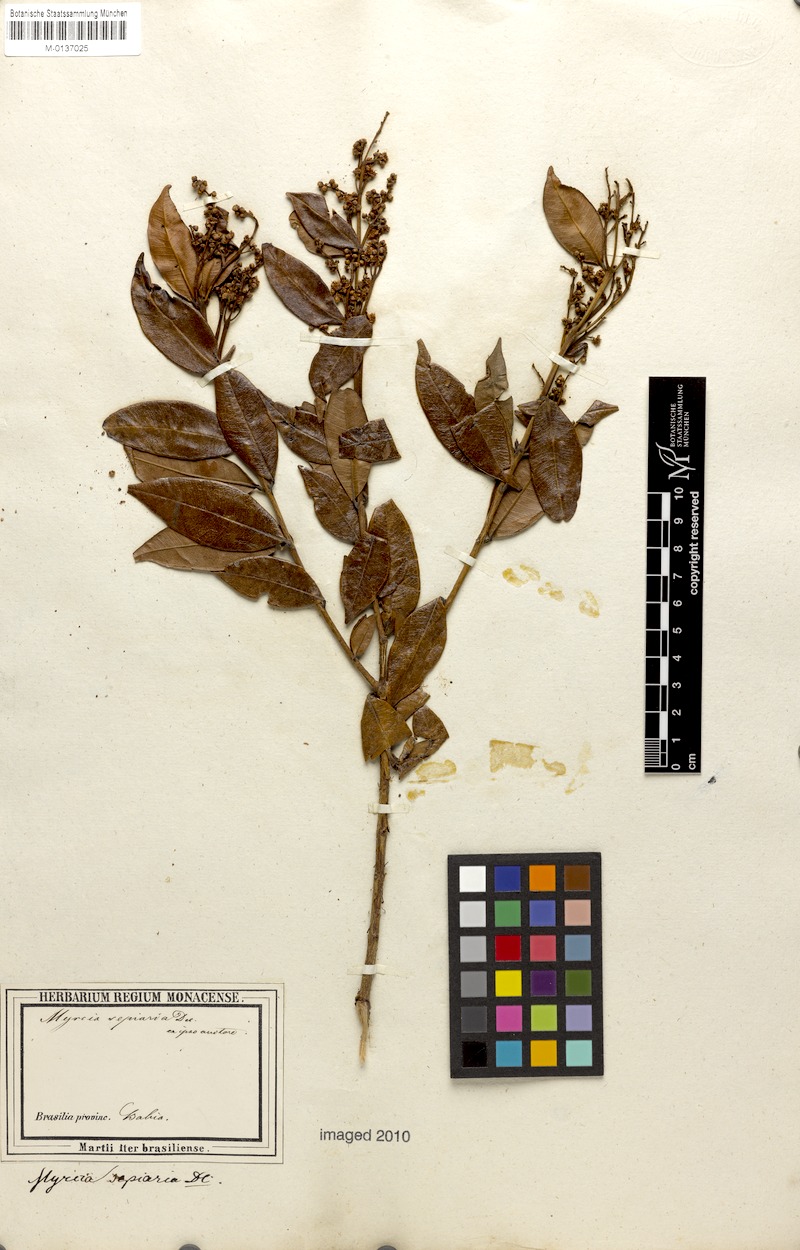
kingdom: Plantae
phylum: Tracheophyta
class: Magnoliopsida
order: Myrtales
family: Myrtaceae
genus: Myrcia
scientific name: Myrcia splendens
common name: Surinam cherry
